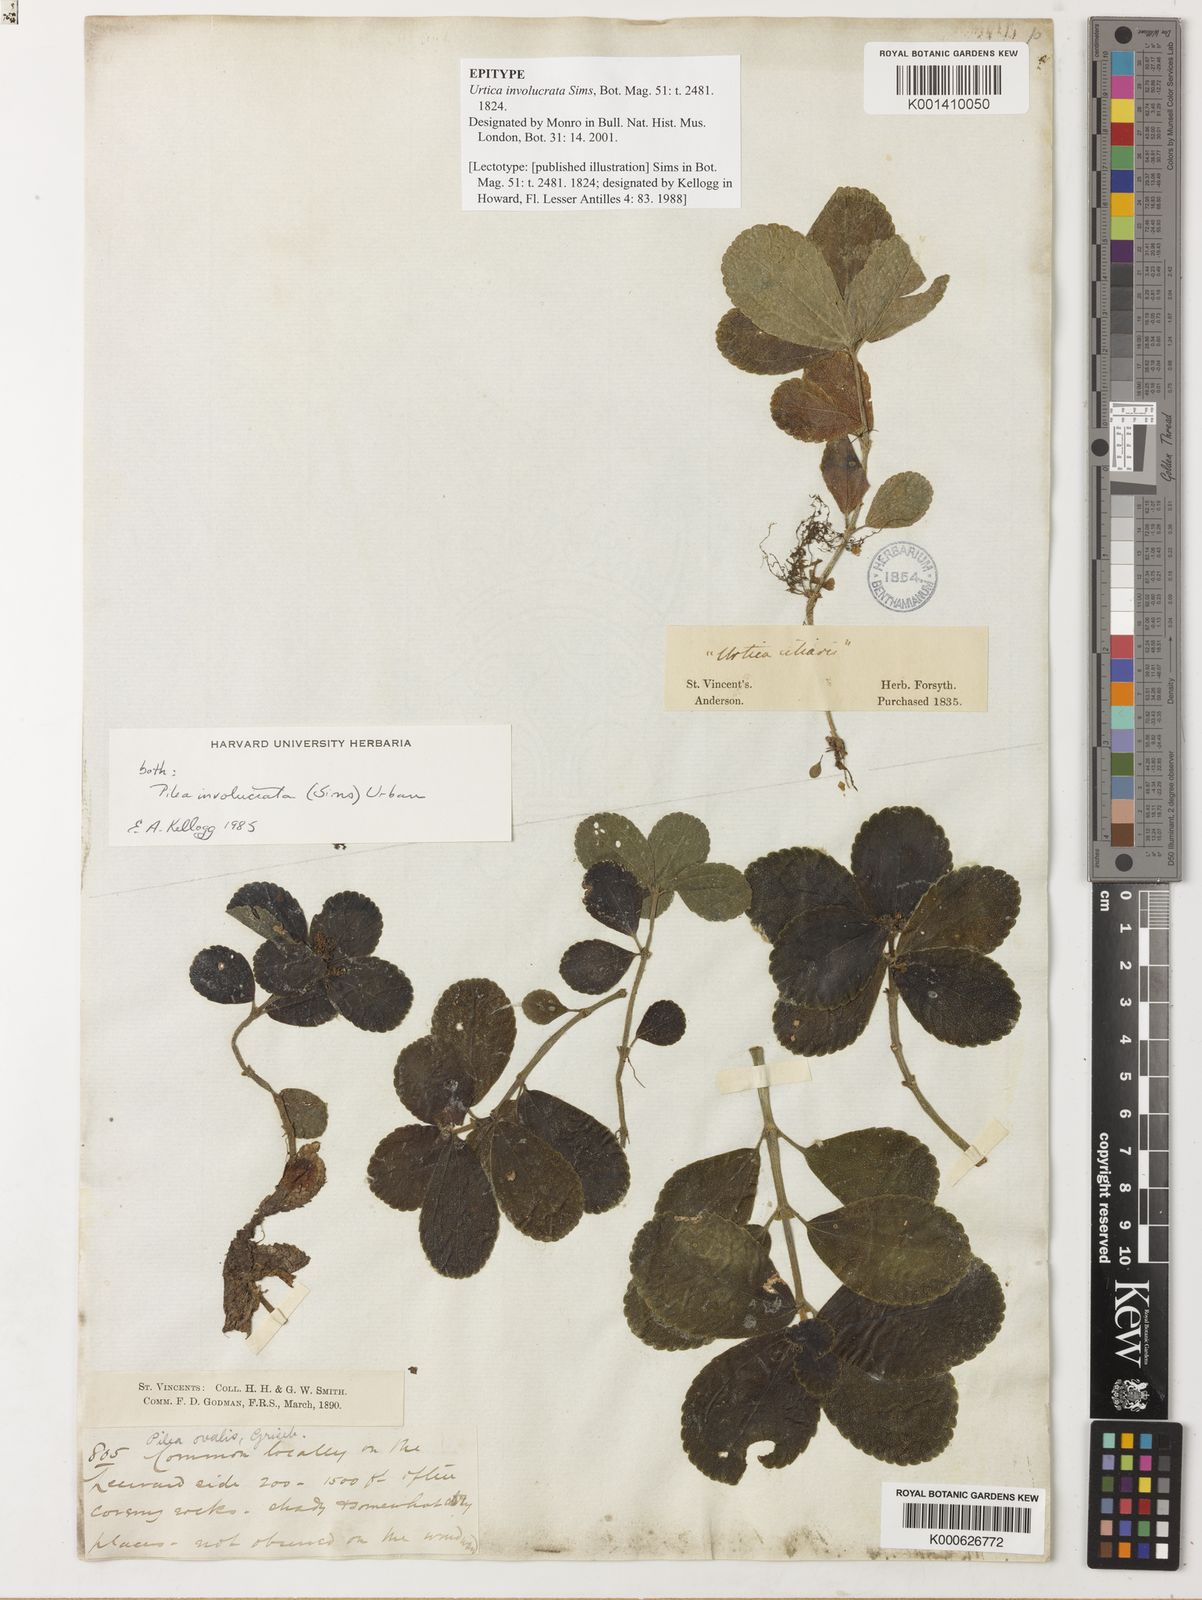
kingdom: Plantae
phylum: Tracheophyta
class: Magnoliopsida
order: Rosales
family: Urticaceae
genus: Pilea
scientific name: Pilea ovalis
